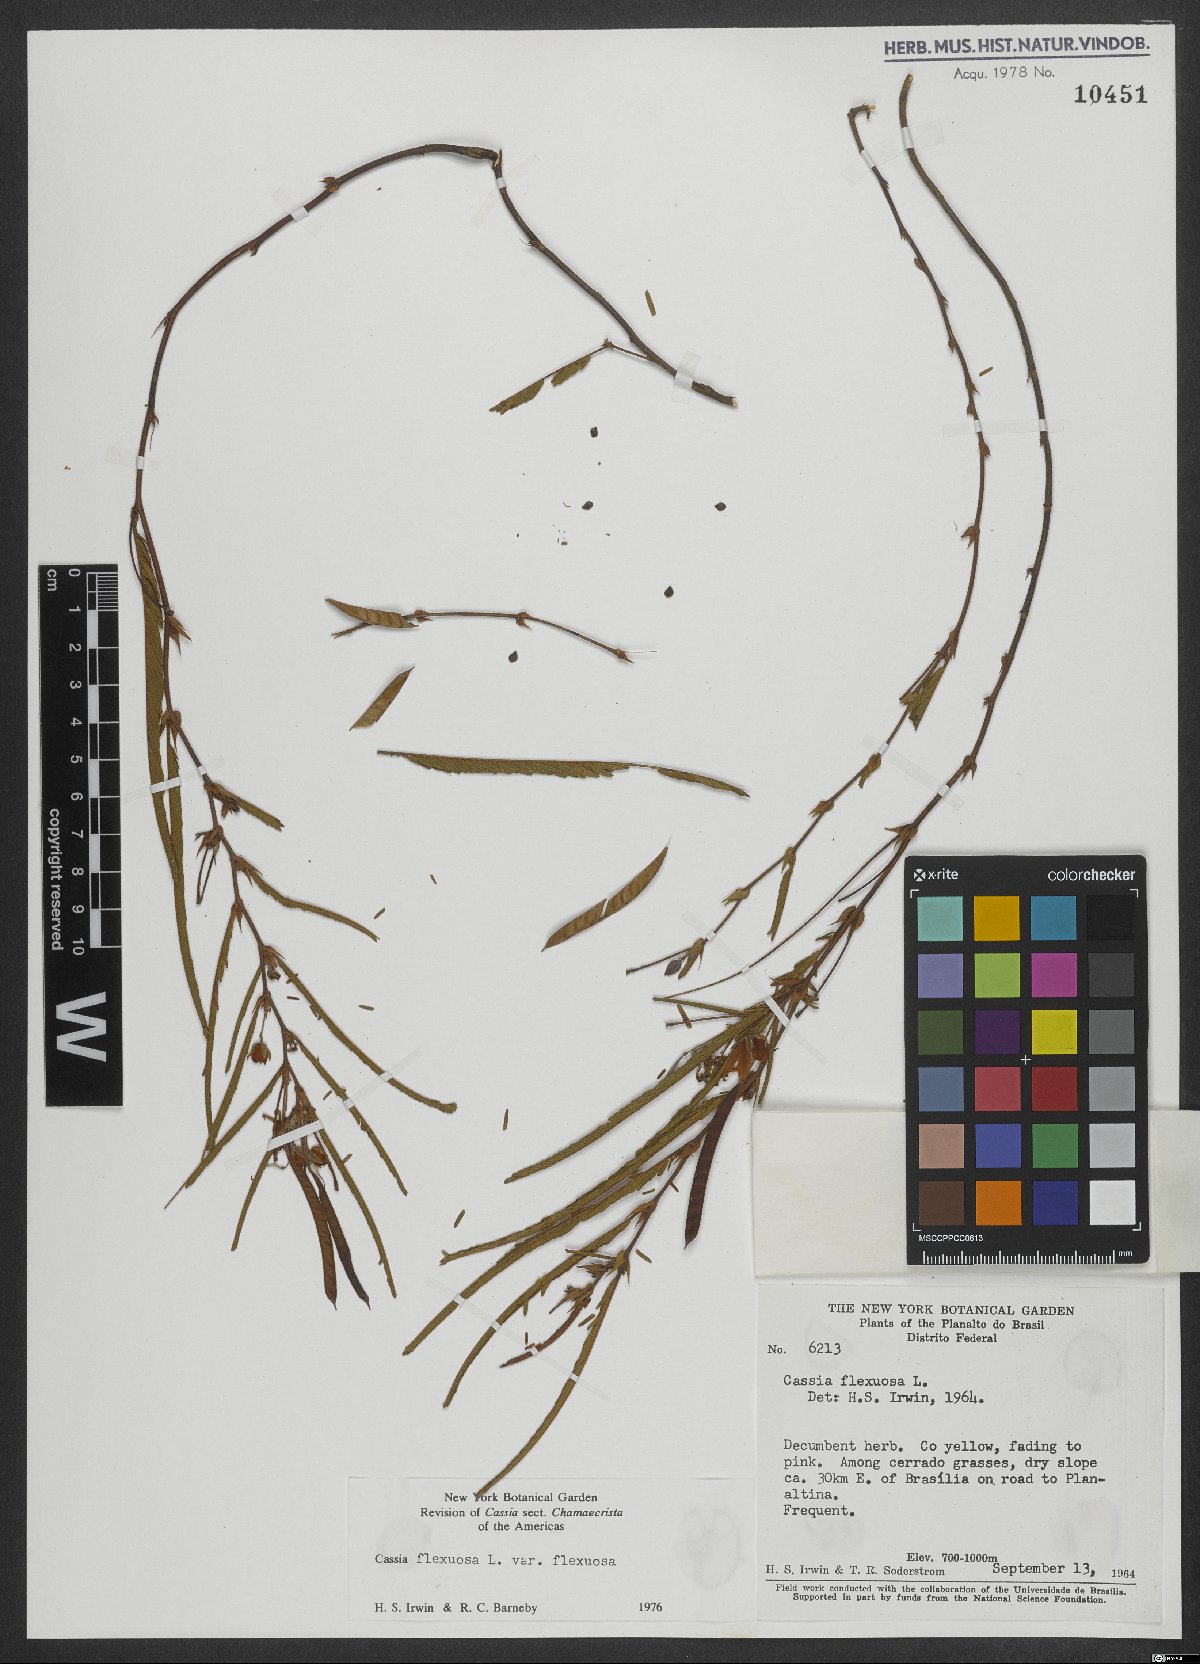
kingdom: Plantae
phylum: Tracheophyta
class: Magnoliopsida
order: Fabales
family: Fabaceae
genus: Chamaecrista
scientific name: Chamaecrista flexuosa
